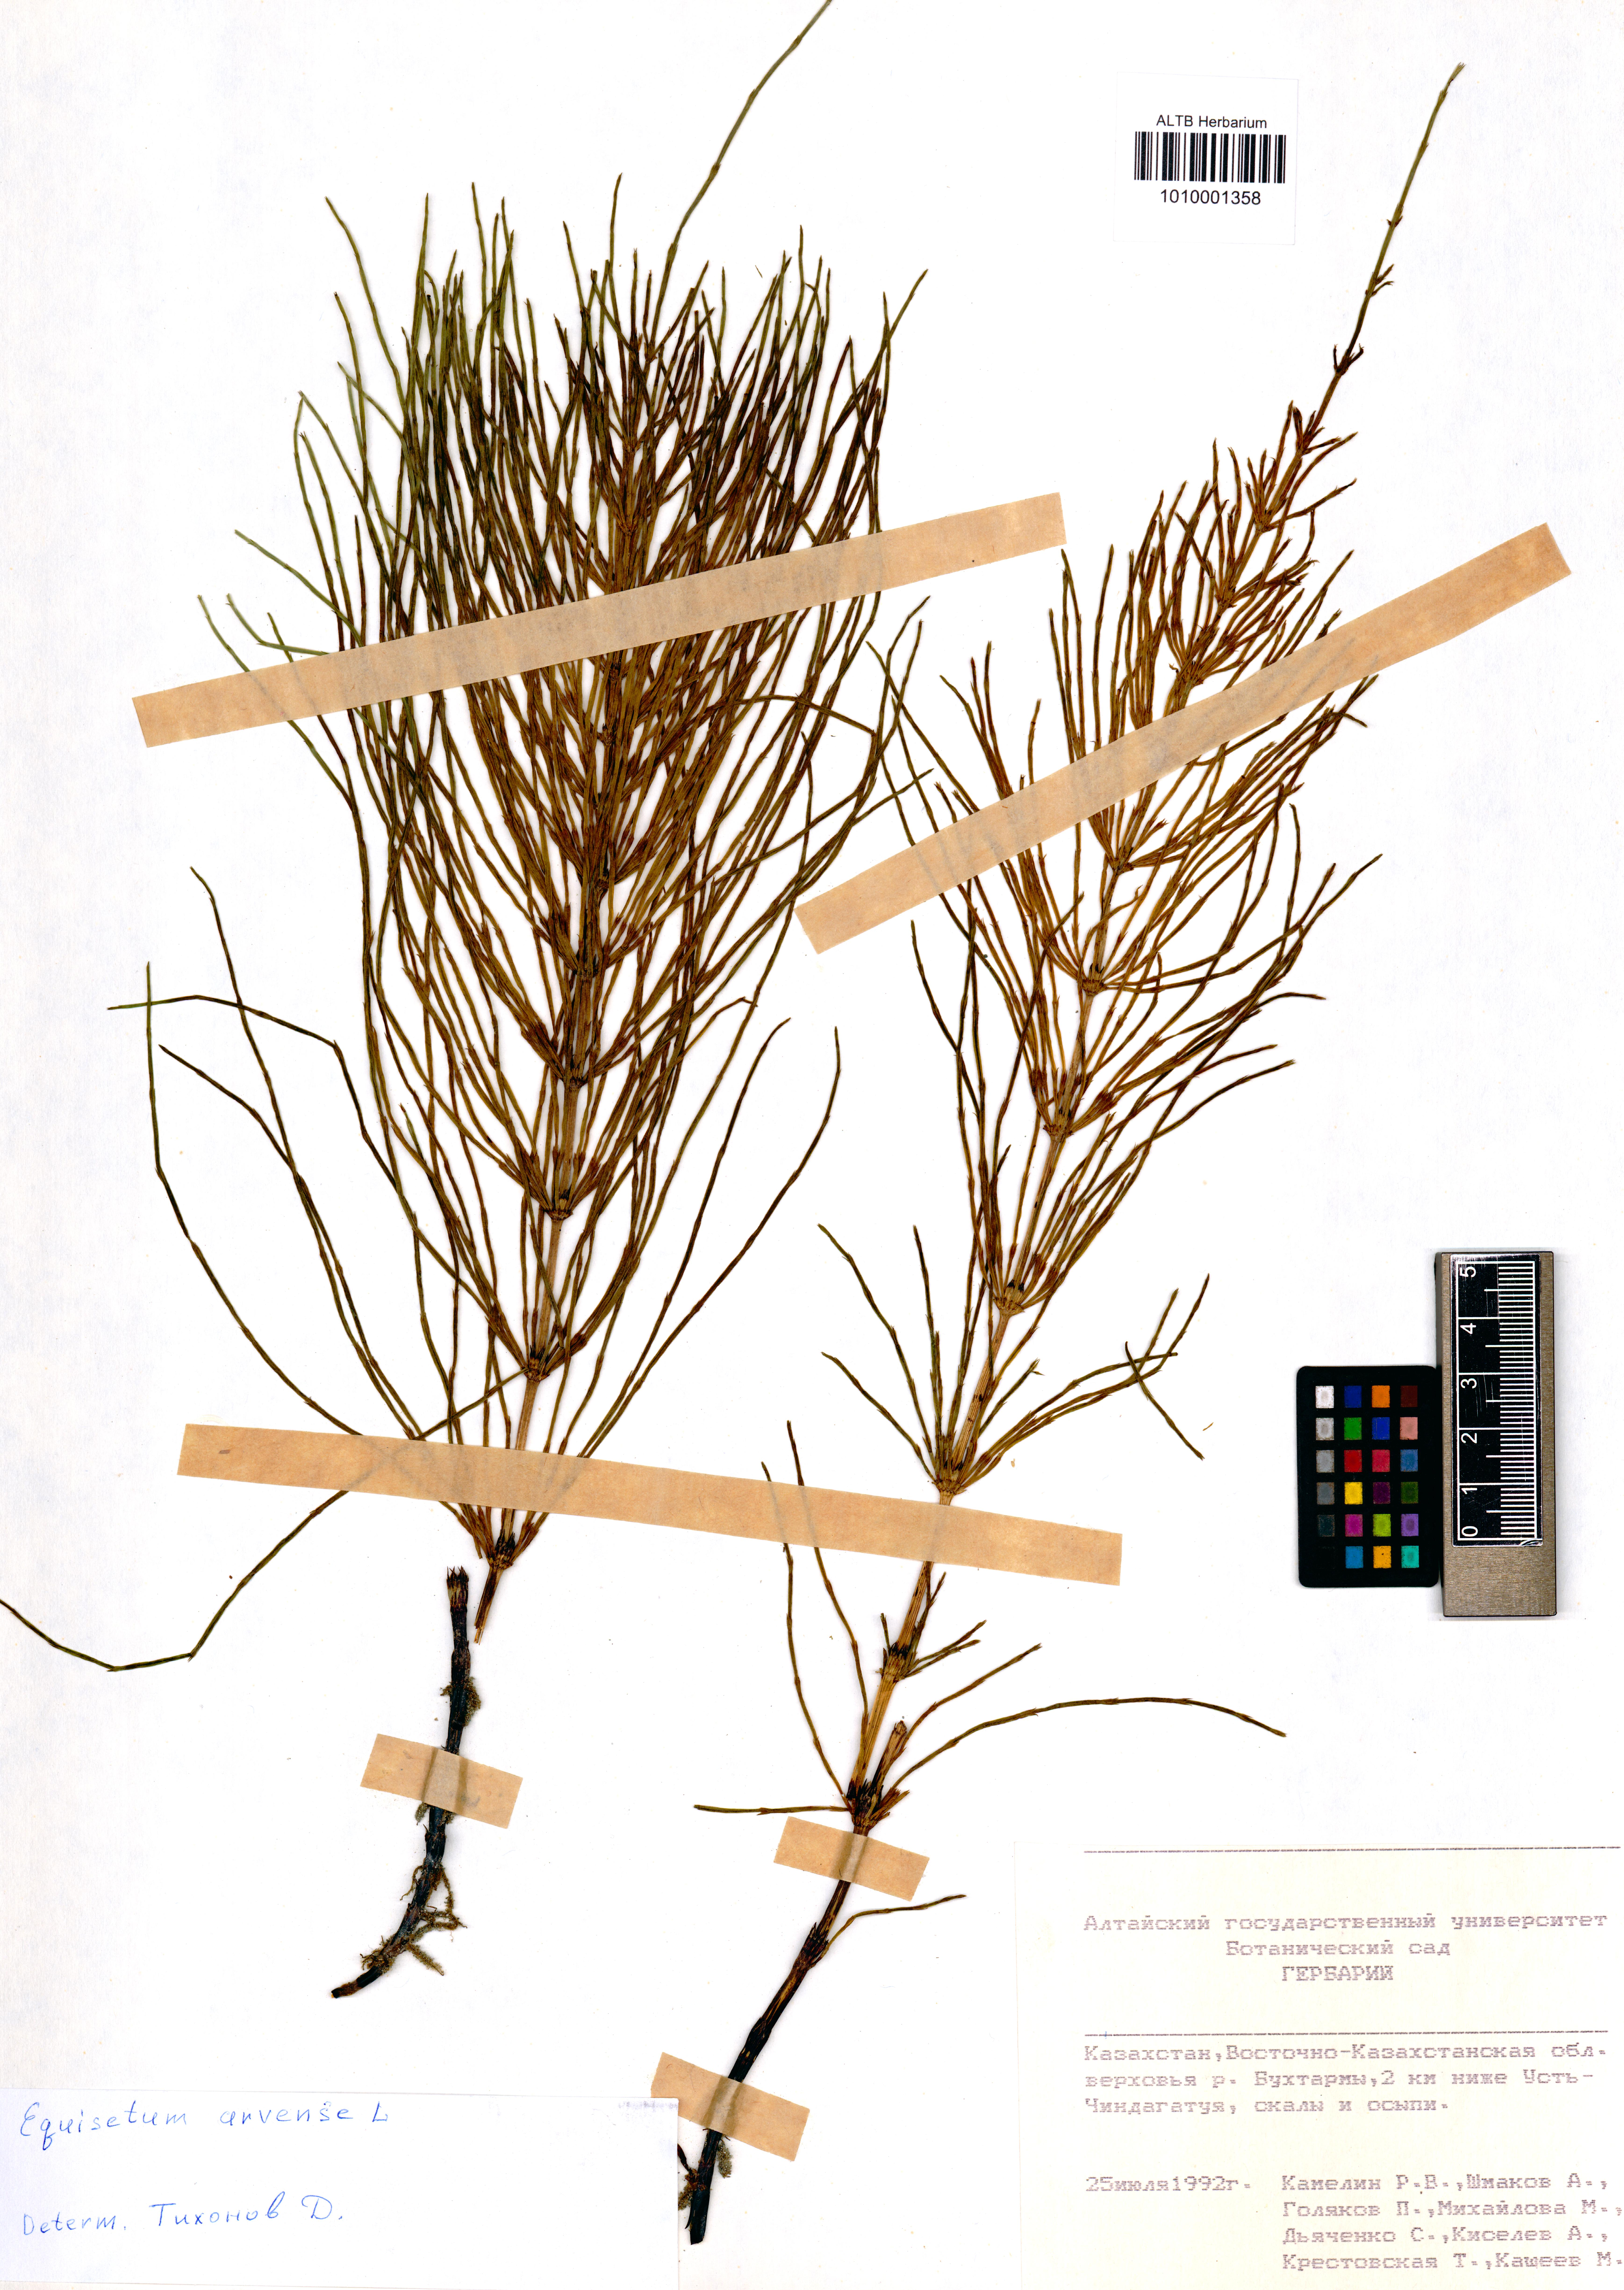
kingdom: Plantae
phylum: Tracheophyta
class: Polypodiopsida
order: Equisetales
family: Equisetaceae
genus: Equisetum
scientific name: Equisetum arvense
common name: Field horsetail
